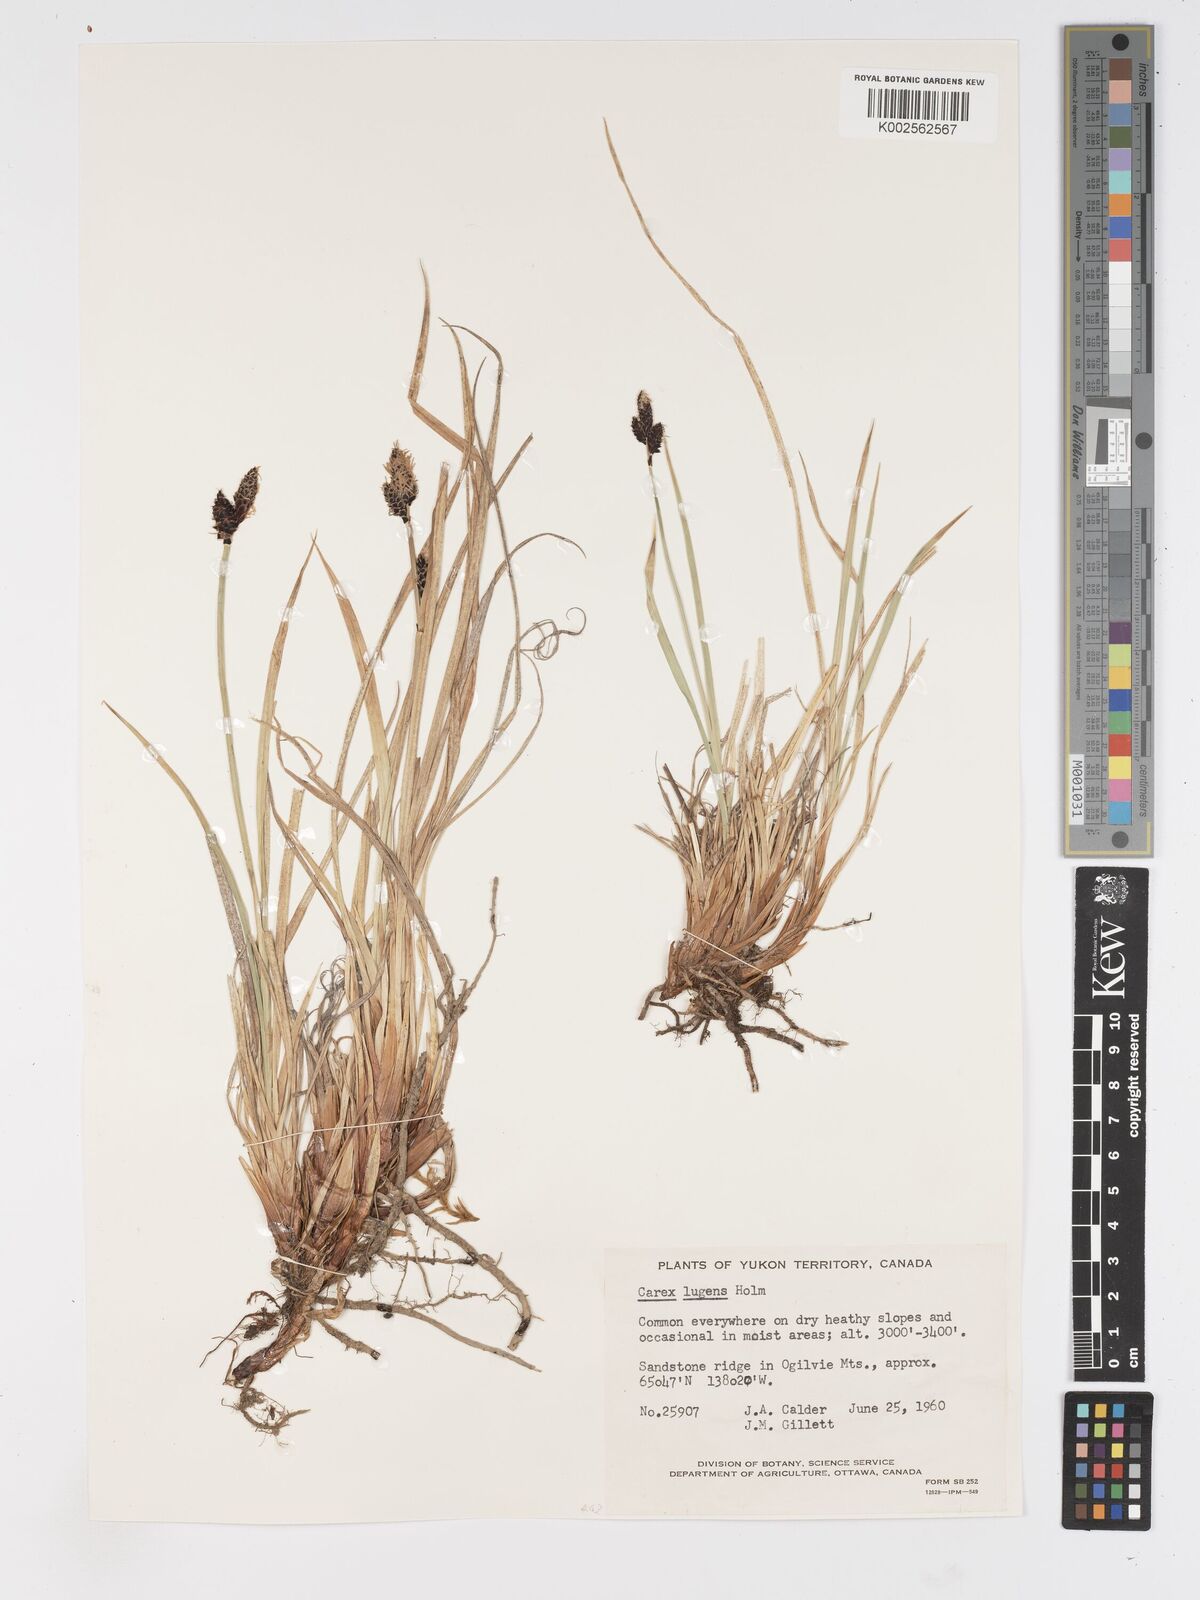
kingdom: Plantae
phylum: Tracheophyta
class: Liliopsida
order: Poales
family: Cyperaceae
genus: Carex
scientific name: Carex bigelowii
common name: Stiff sedge
